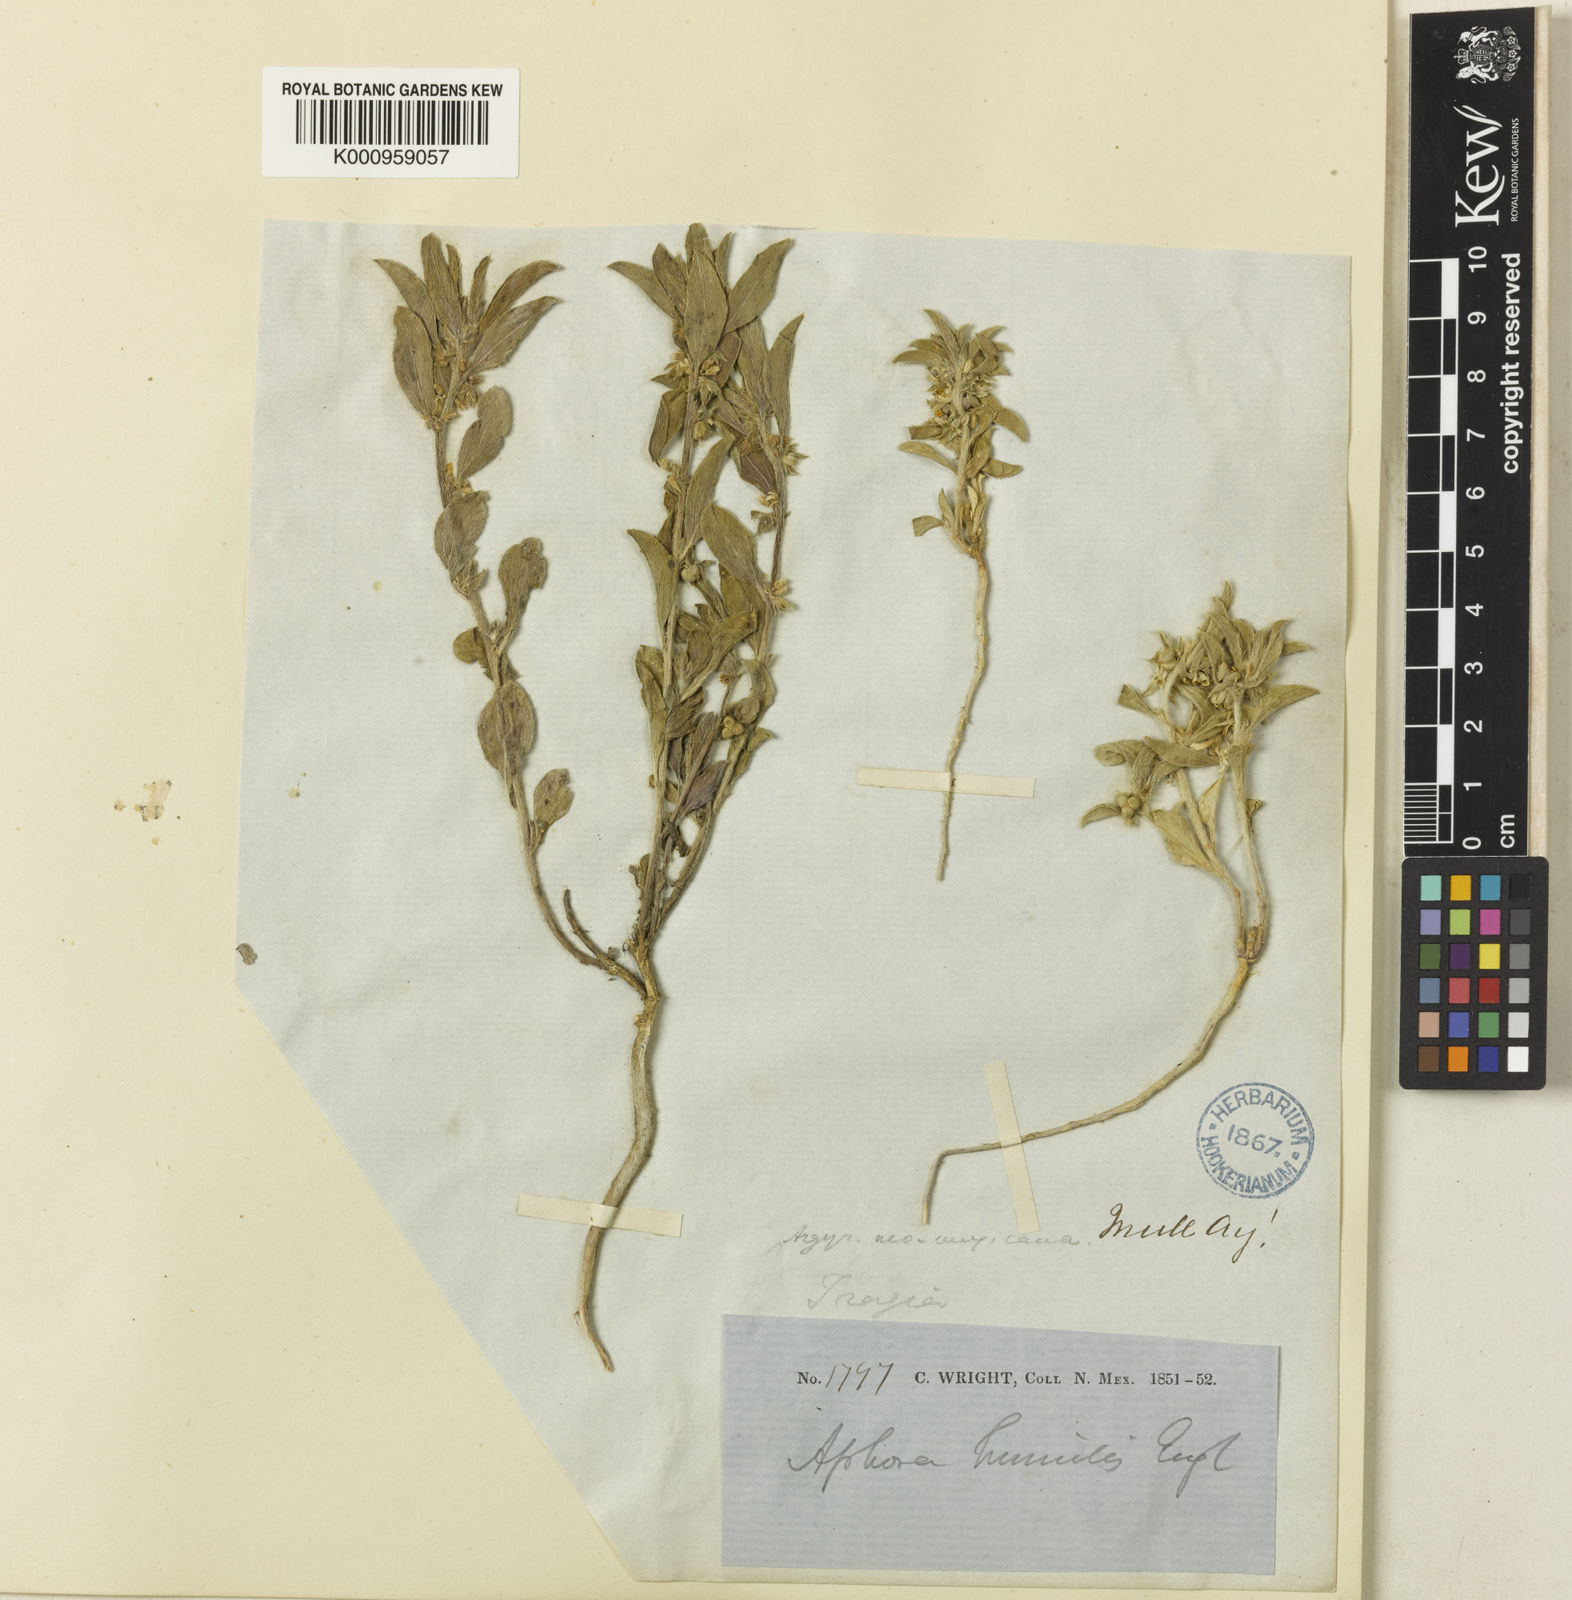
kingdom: Plantae
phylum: Tracheophyta
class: Magnoliopsida
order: Malpighiales
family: Euphorbiaceae
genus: Ditaxis
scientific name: Ditaxis
